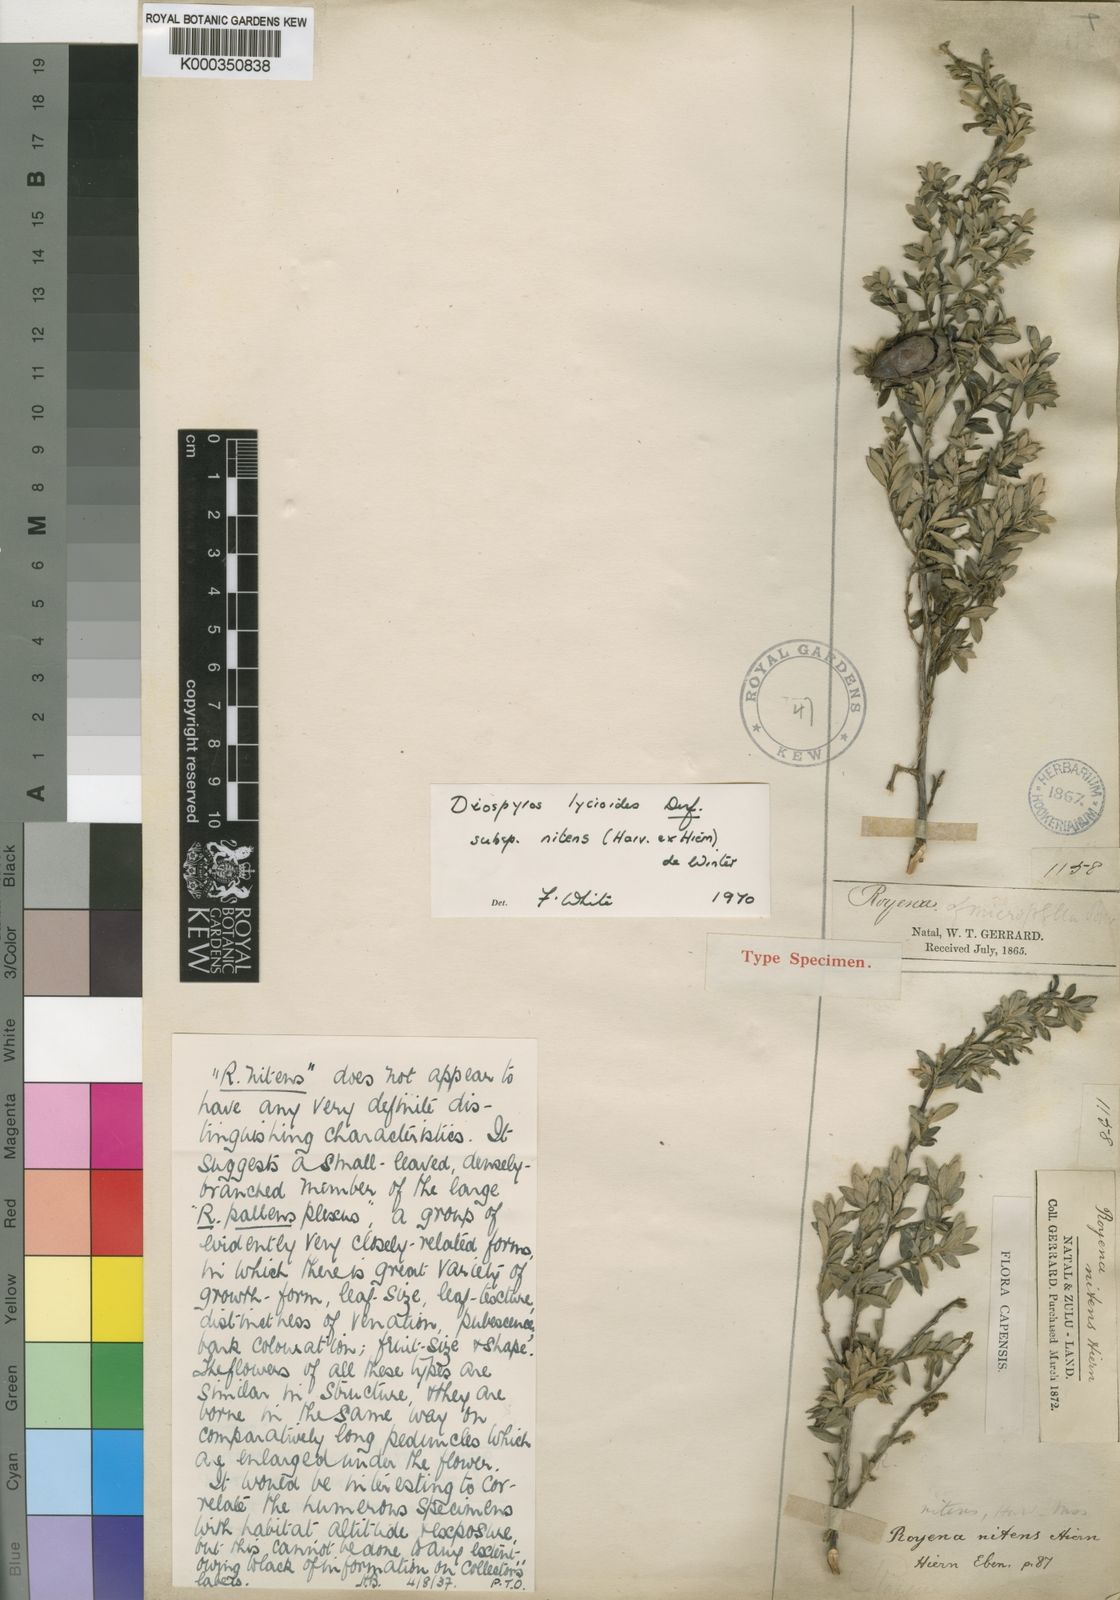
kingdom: Plantae
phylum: Tracheophyta
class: Magnoliopsida
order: Ericales
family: Ebenaceae
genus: Diospyros
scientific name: Diospyros lycioides
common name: Red star apple
